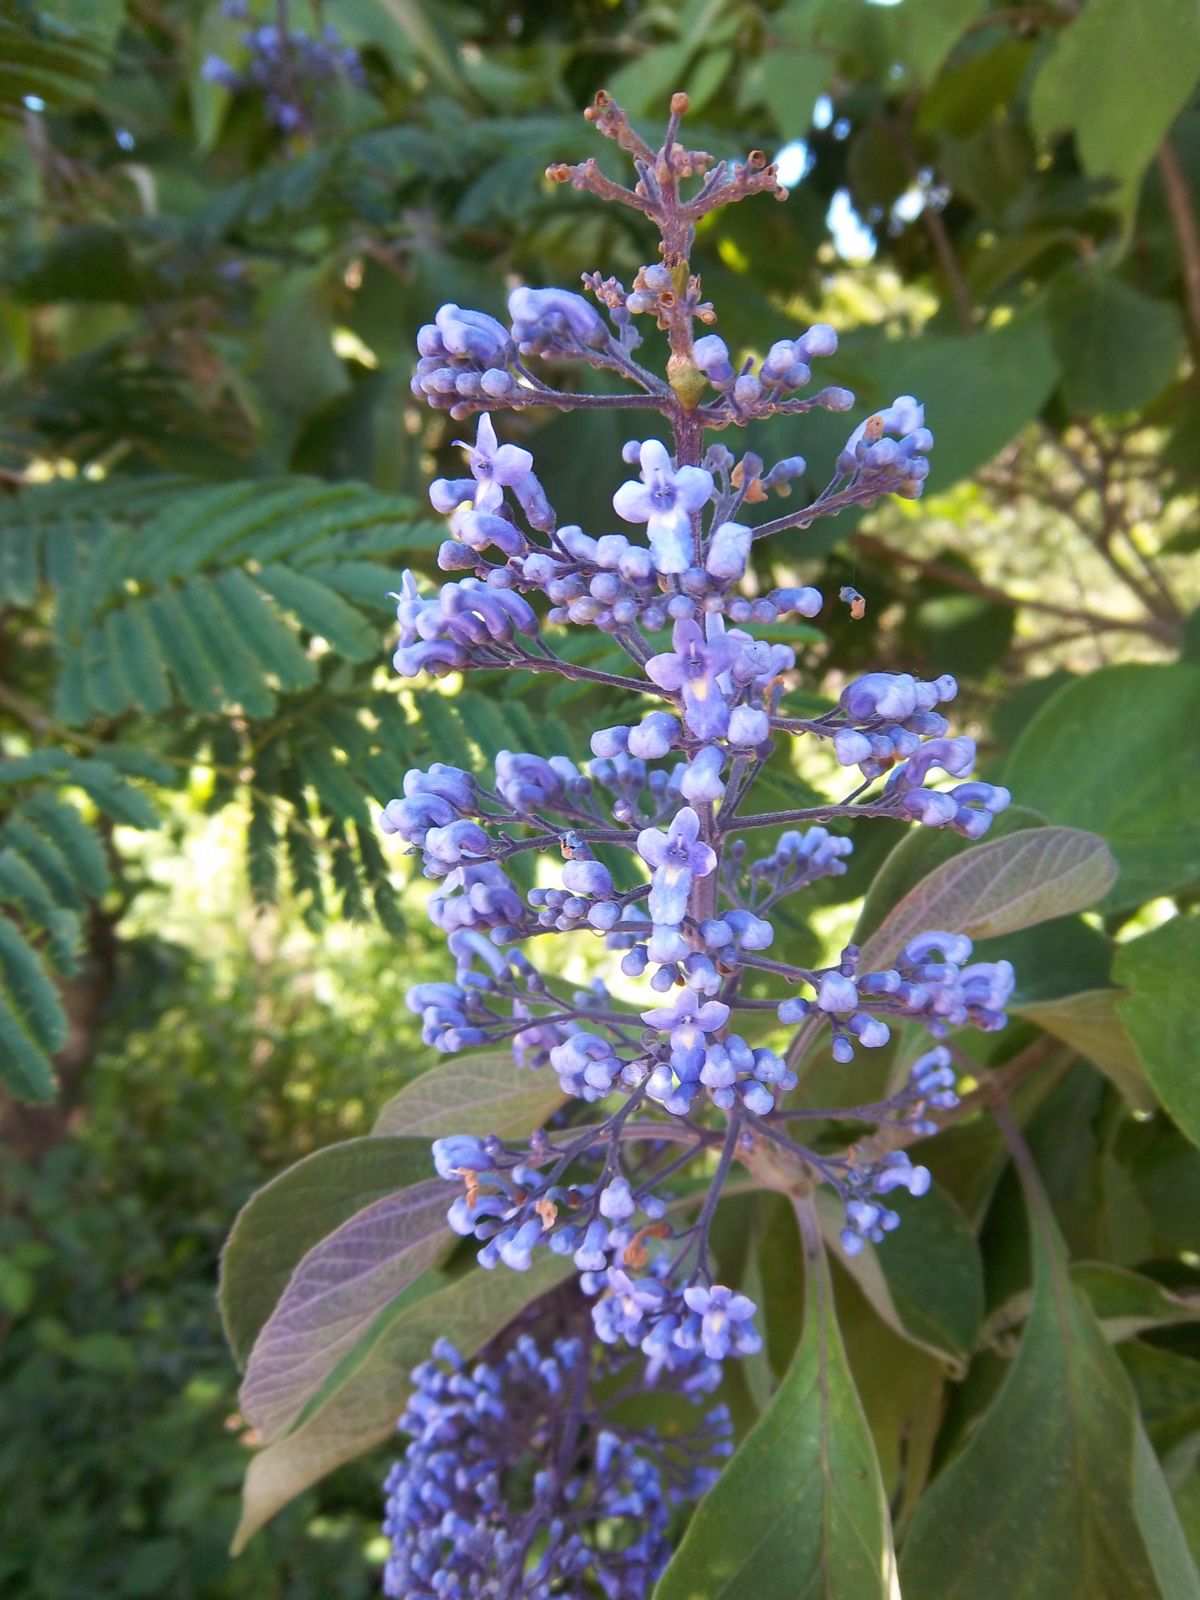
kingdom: Plantae
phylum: Tracheophyta
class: Magnoliopsida
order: Lamiales
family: Lamiaceae
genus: Cornutia
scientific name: Cornutia pyramidata
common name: Azulejo
